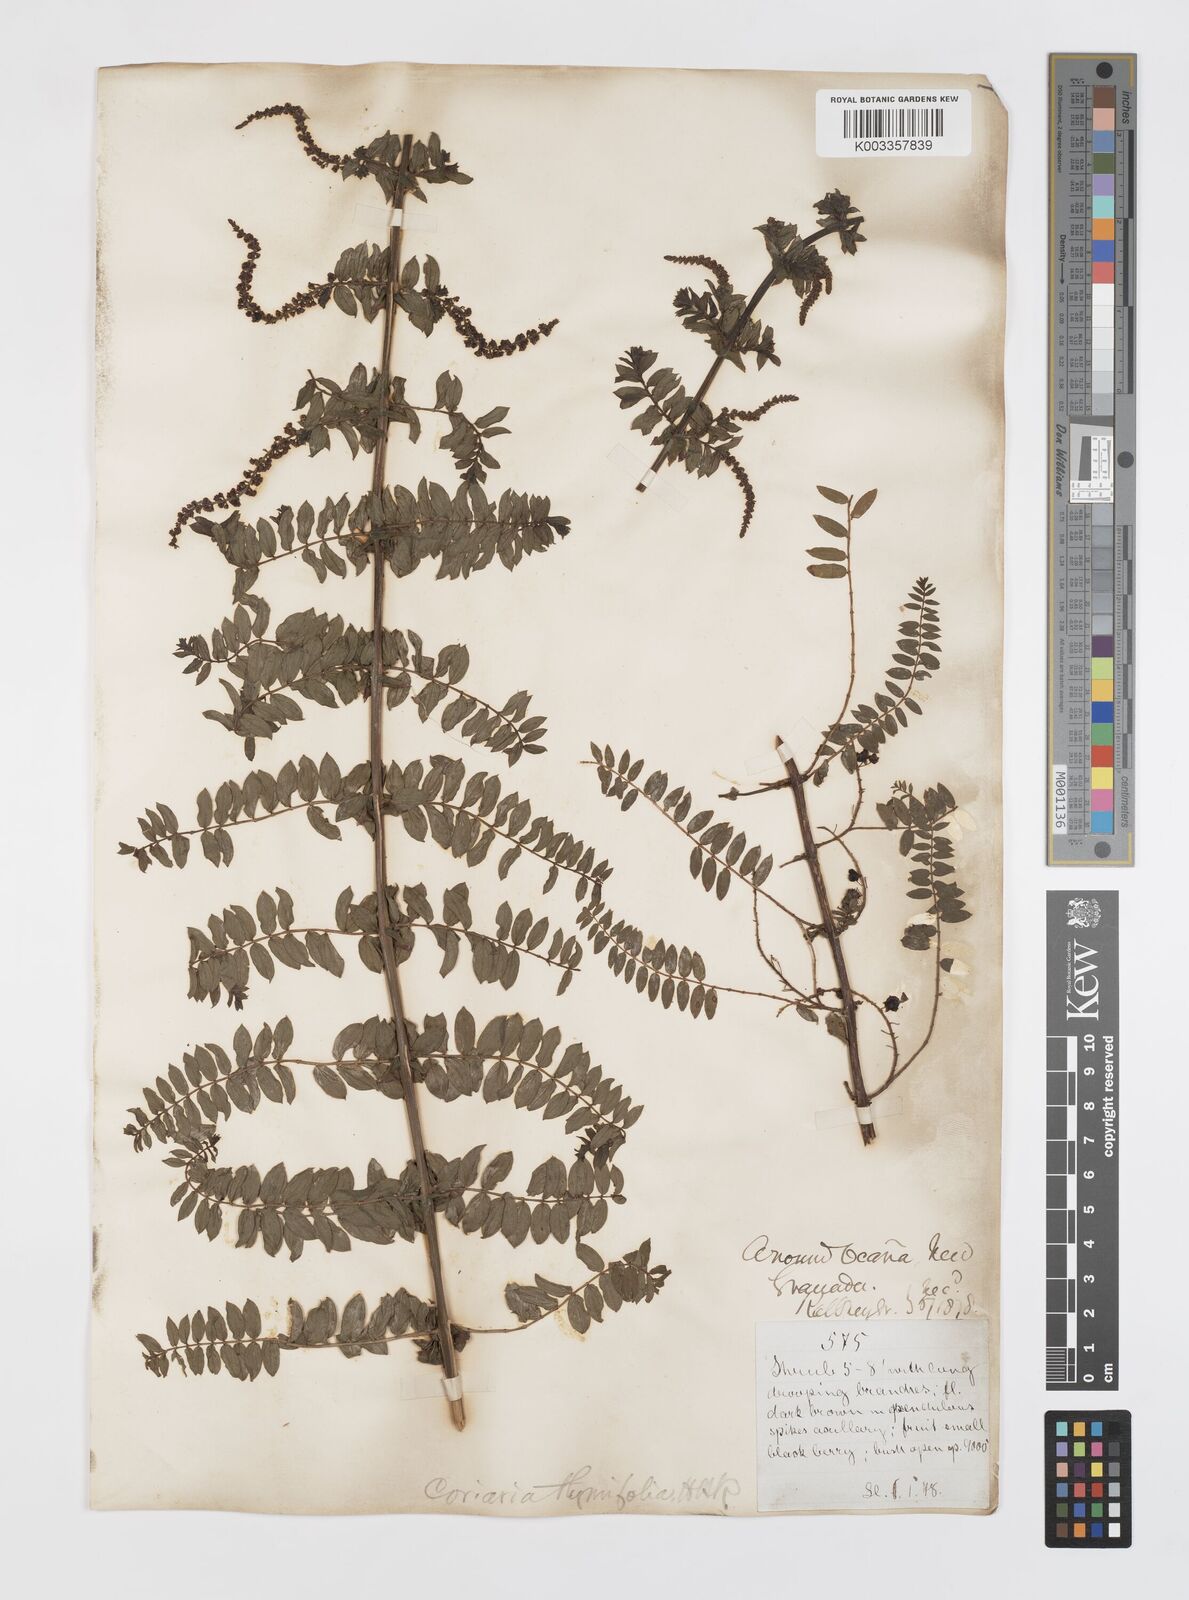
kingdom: Plantae
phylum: Tracheophyta
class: Magnoliopsida
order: Cucurbitales
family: Coriariaceae
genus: Coriaria
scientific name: Coriaria microphylla
